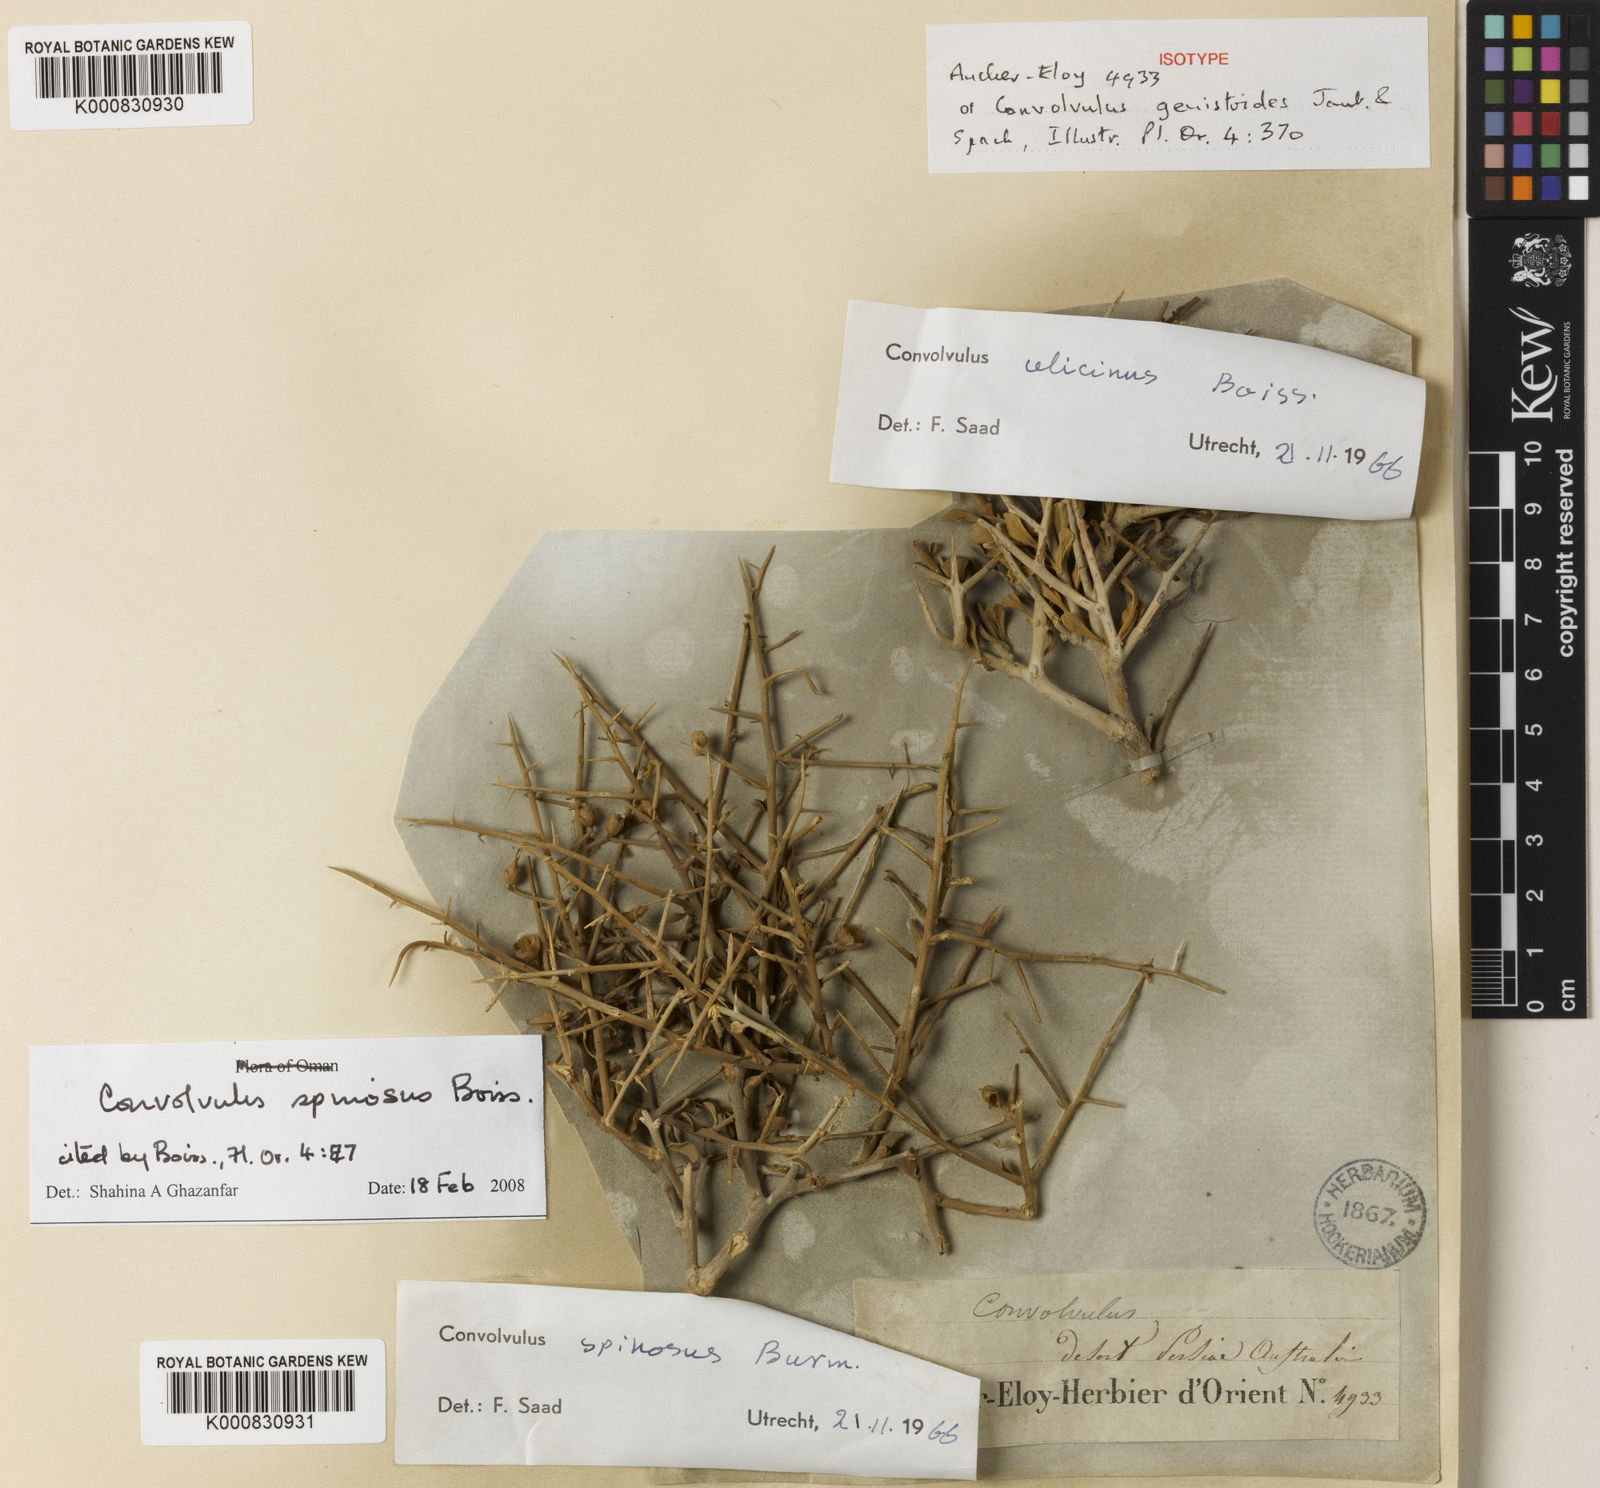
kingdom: Plantae
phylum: Tracheophyta
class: Magnoliopsida
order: Solanales
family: Convolvulaceae
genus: Convolvulus
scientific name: Convolvulus
